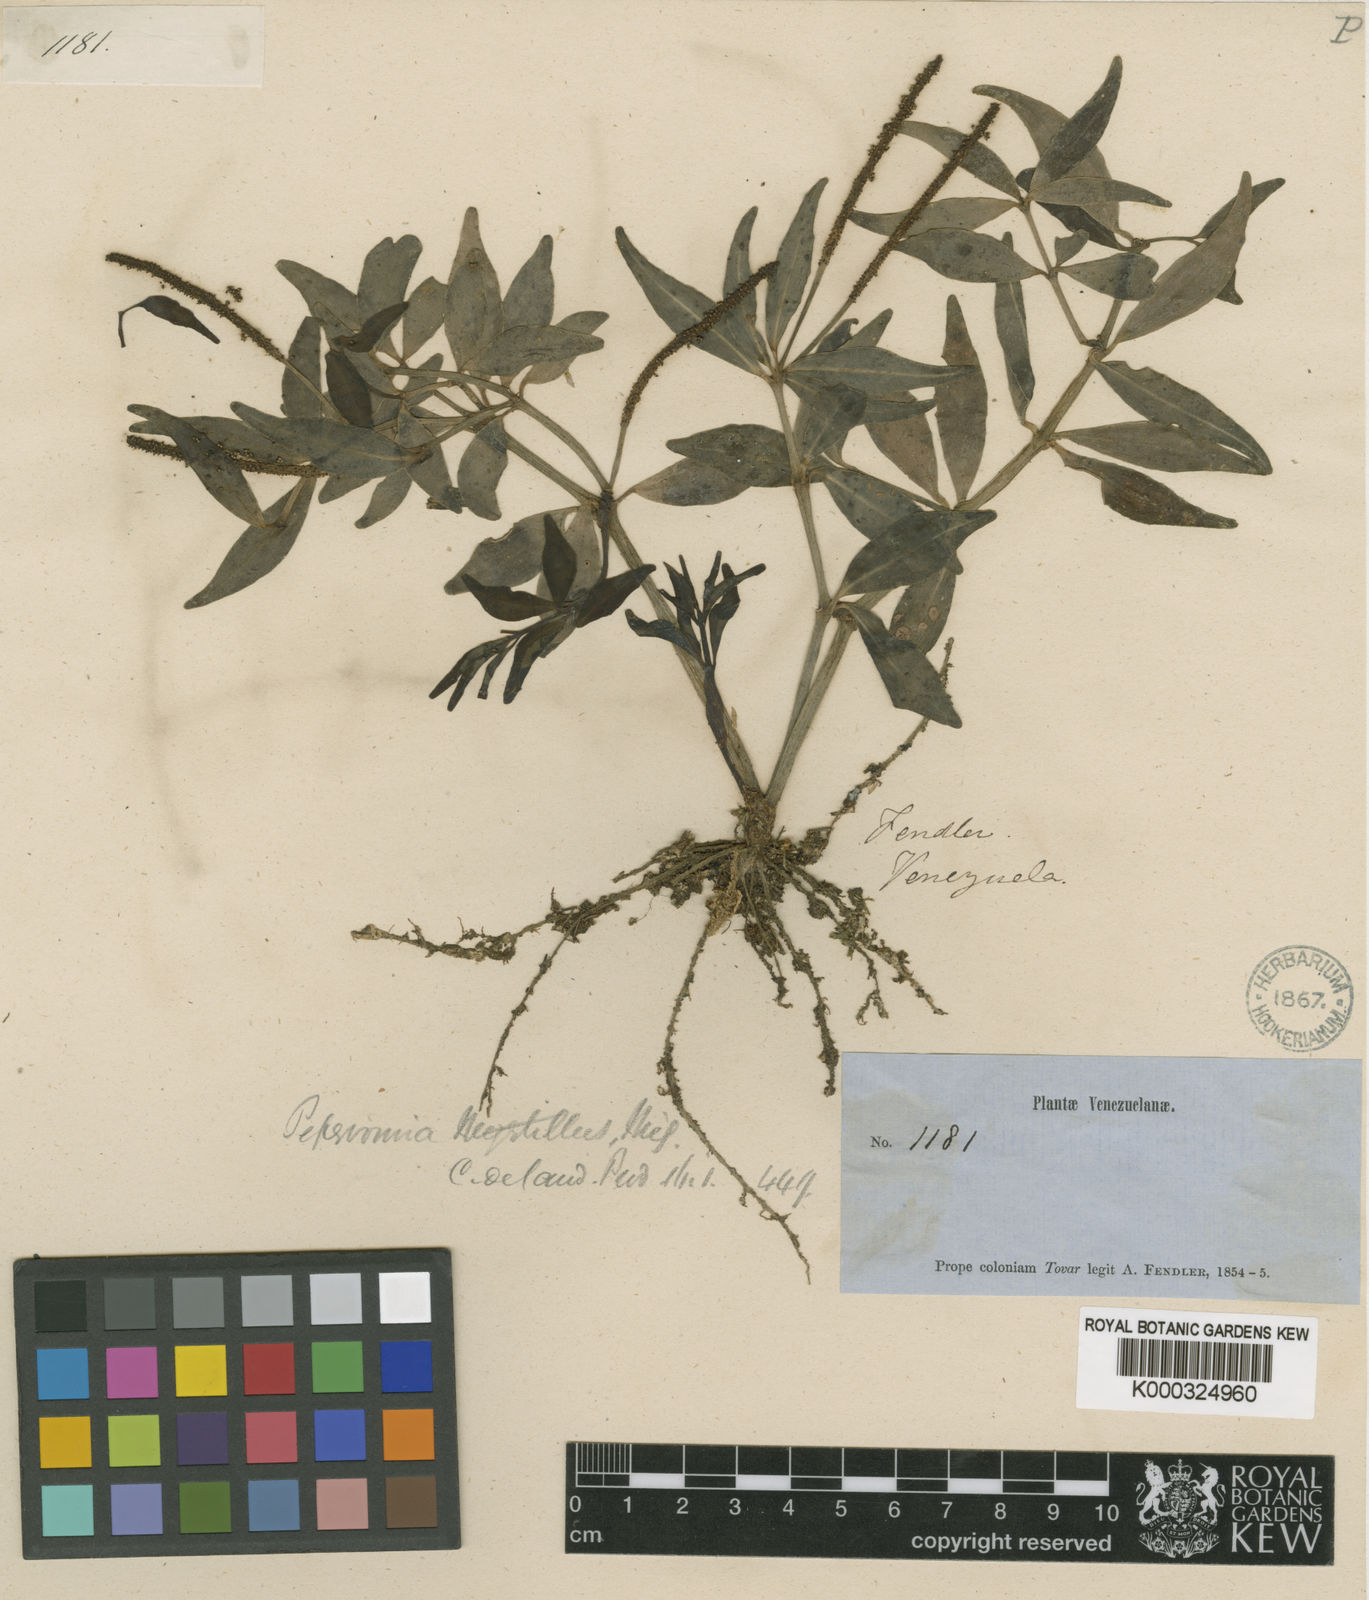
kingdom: Plantae
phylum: Tracheophyta
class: Magnoliopsida
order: Piperales
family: Piperaceae
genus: Peperomia
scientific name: Peperomia rhombea
